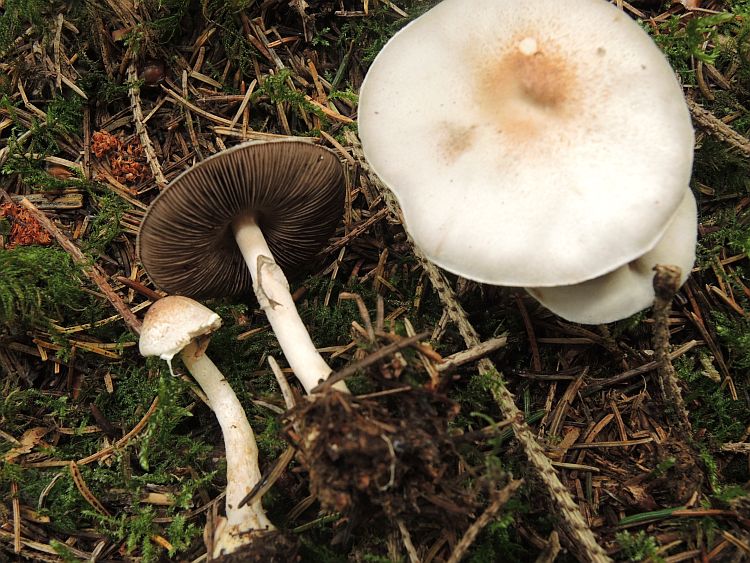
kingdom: Fungi
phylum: Basidiomycota
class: Agaricomycetes
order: Agaricales
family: Agaricaceae
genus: Agaricus
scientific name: Agaricus dulcidulus
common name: blegrød champignon
